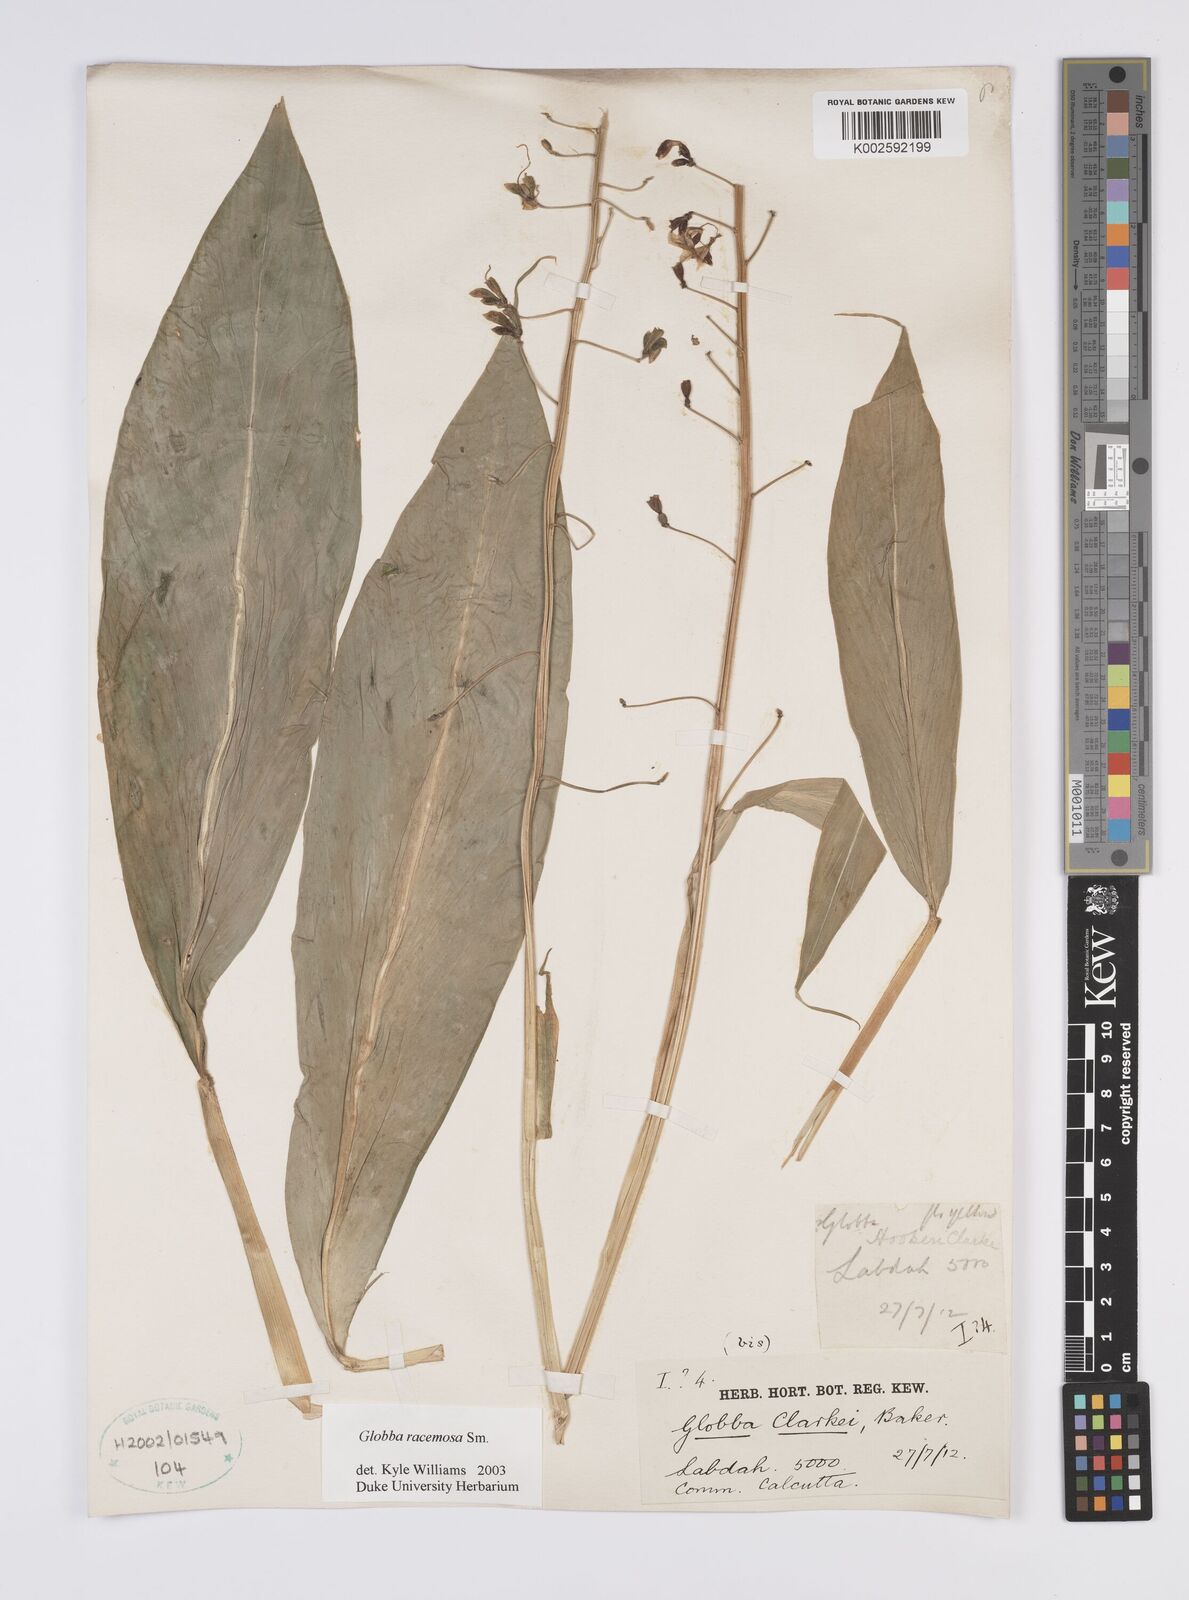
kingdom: Plantae
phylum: Tracheophyta
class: Liliopsida
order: Zingiberales
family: Zingiberaceae
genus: Globba
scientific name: Globba racemosa
